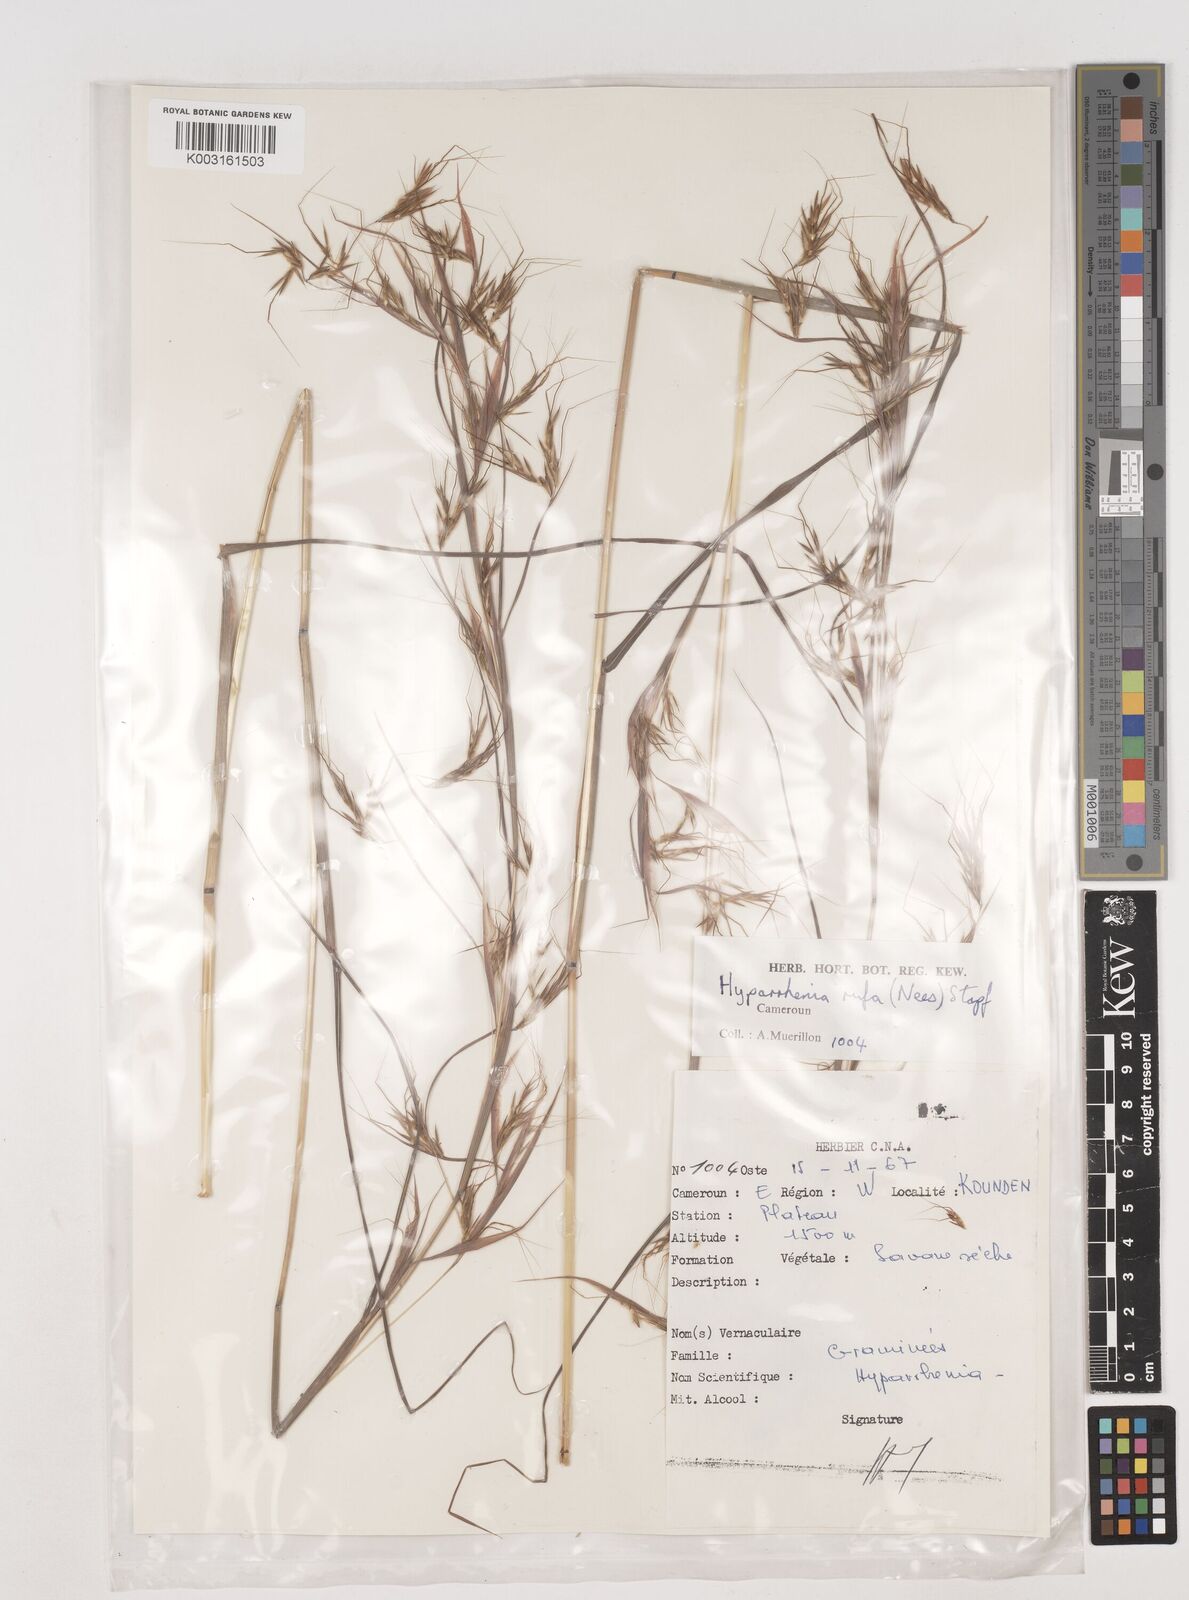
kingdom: Plantae
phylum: Tracheophyta
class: Liliopsida
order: Poales
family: Poaceae
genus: Hyparrhenia
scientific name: Hyparrhenia rufa
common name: Jaraguagrass
